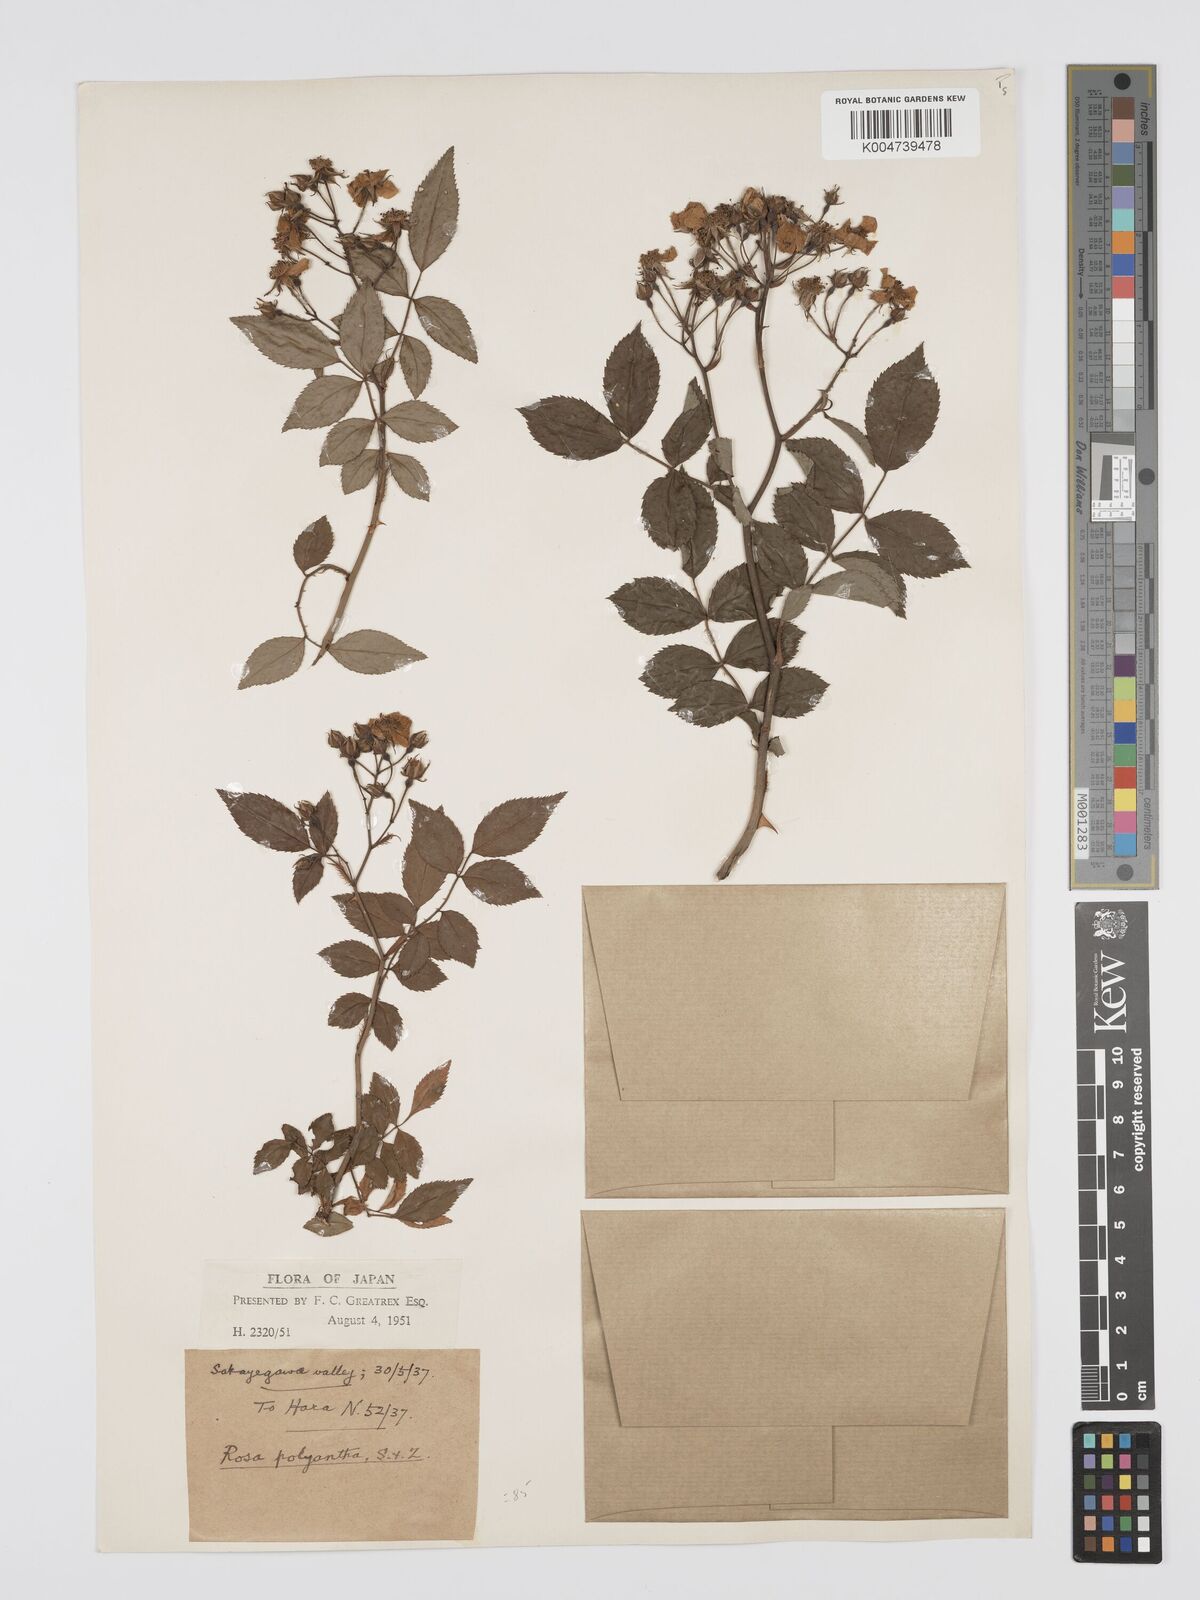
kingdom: Plantae
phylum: Tracheophyta
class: Magnoliopsida
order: Rosales
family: Rosaceae
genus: Rosa
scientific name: Rosa
